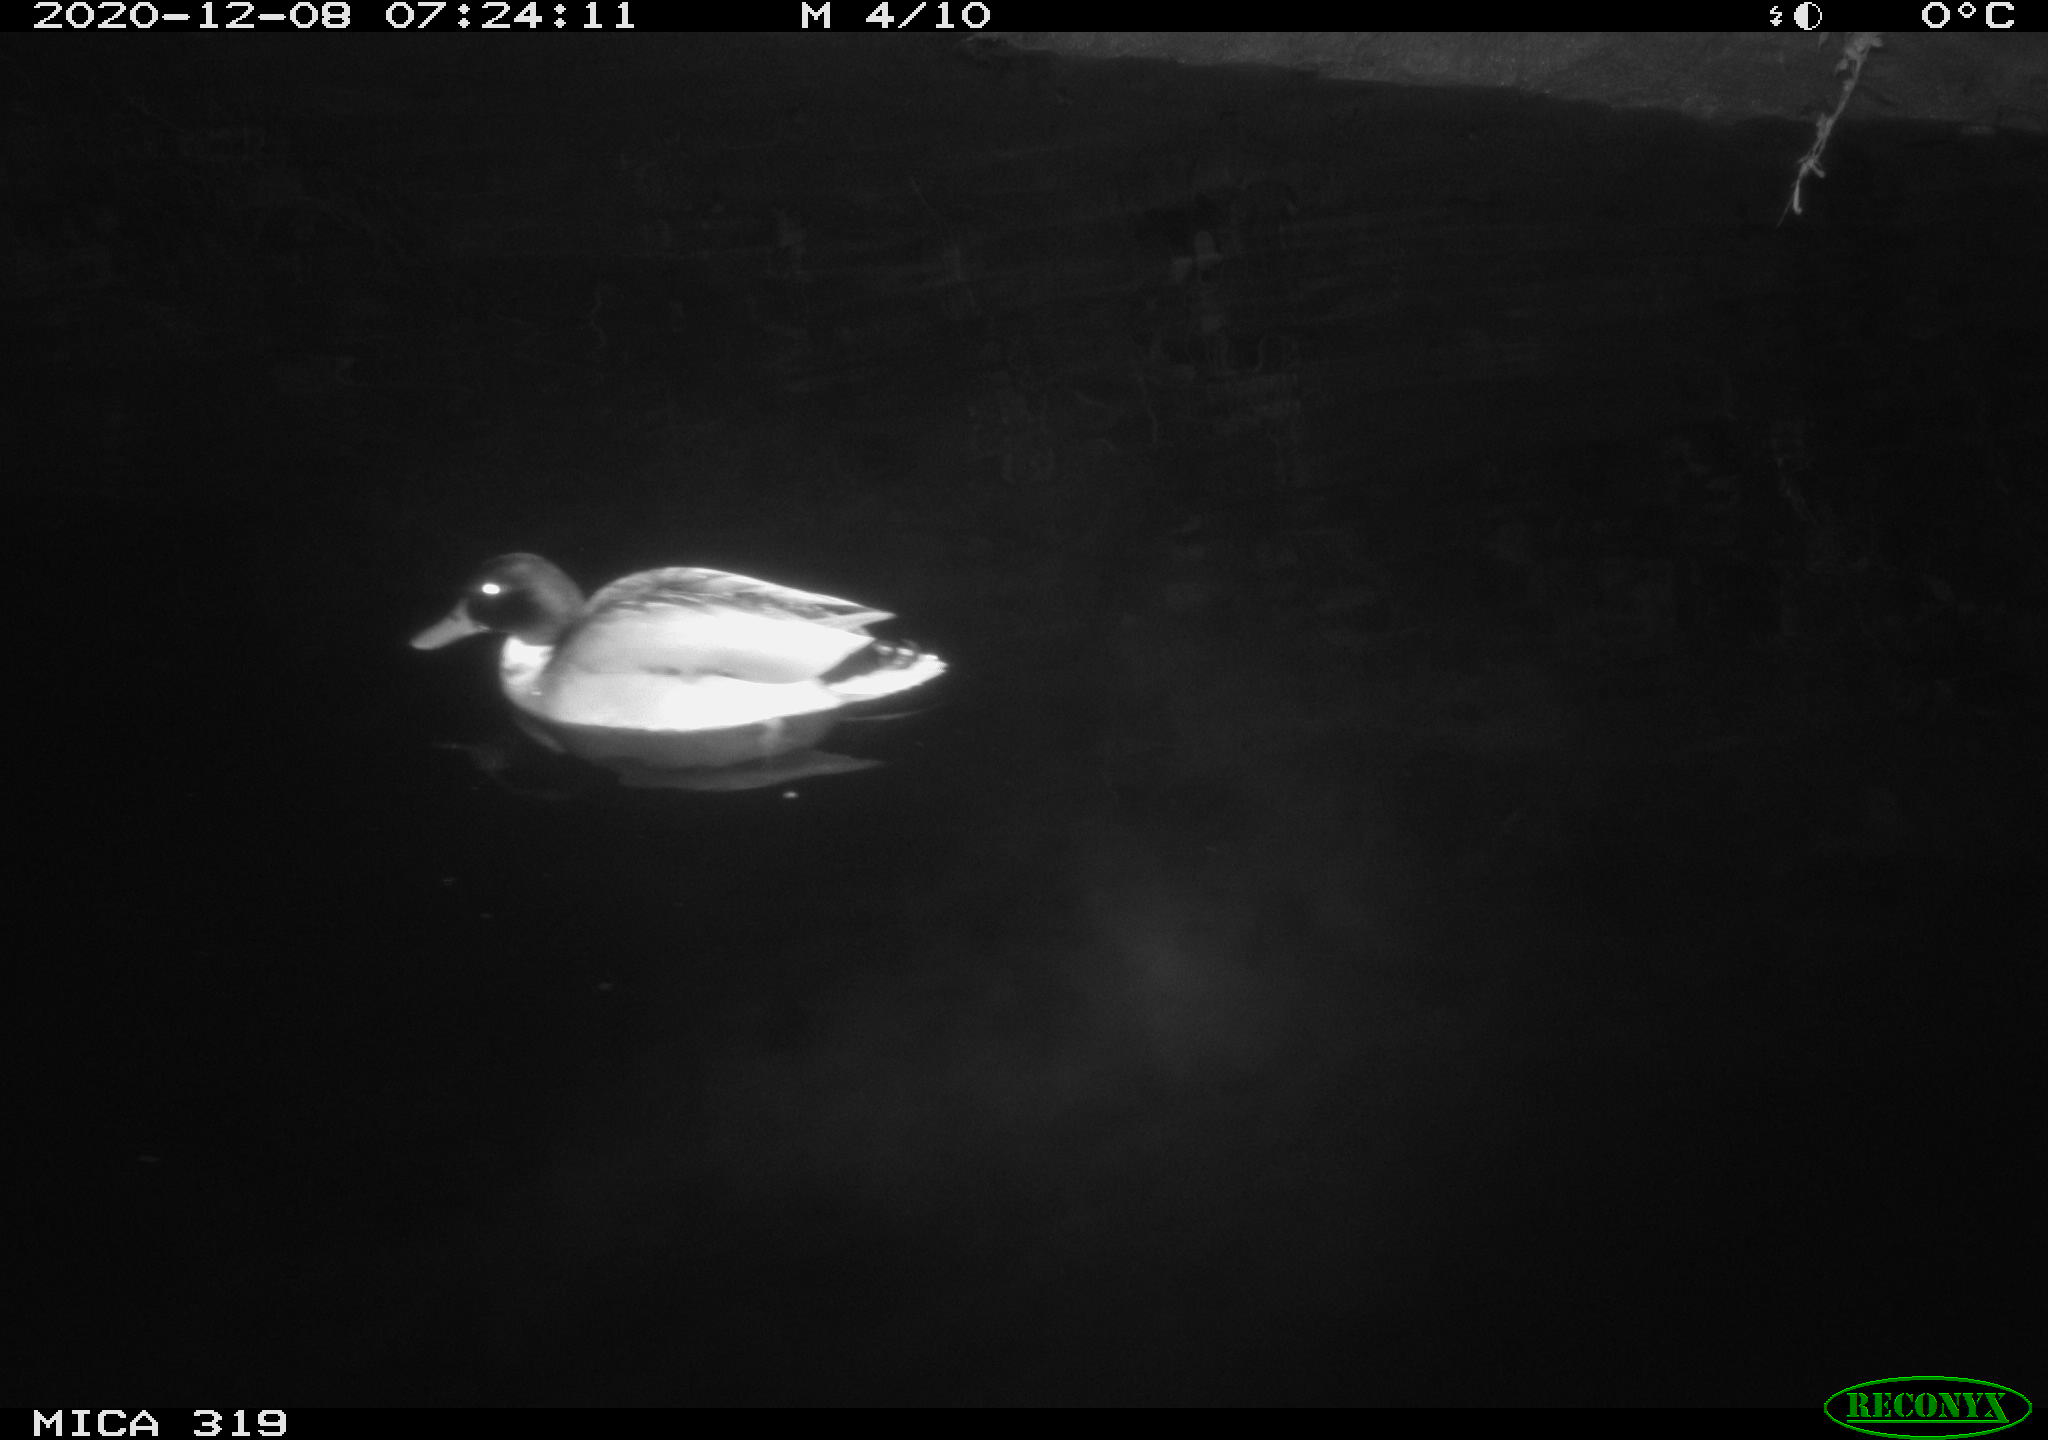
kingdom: Animalia
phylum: Chordata
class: Aves
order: Anseriformes
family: Anatidae
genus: Anas
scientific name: Anas platyrhynchos
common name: Mallard
